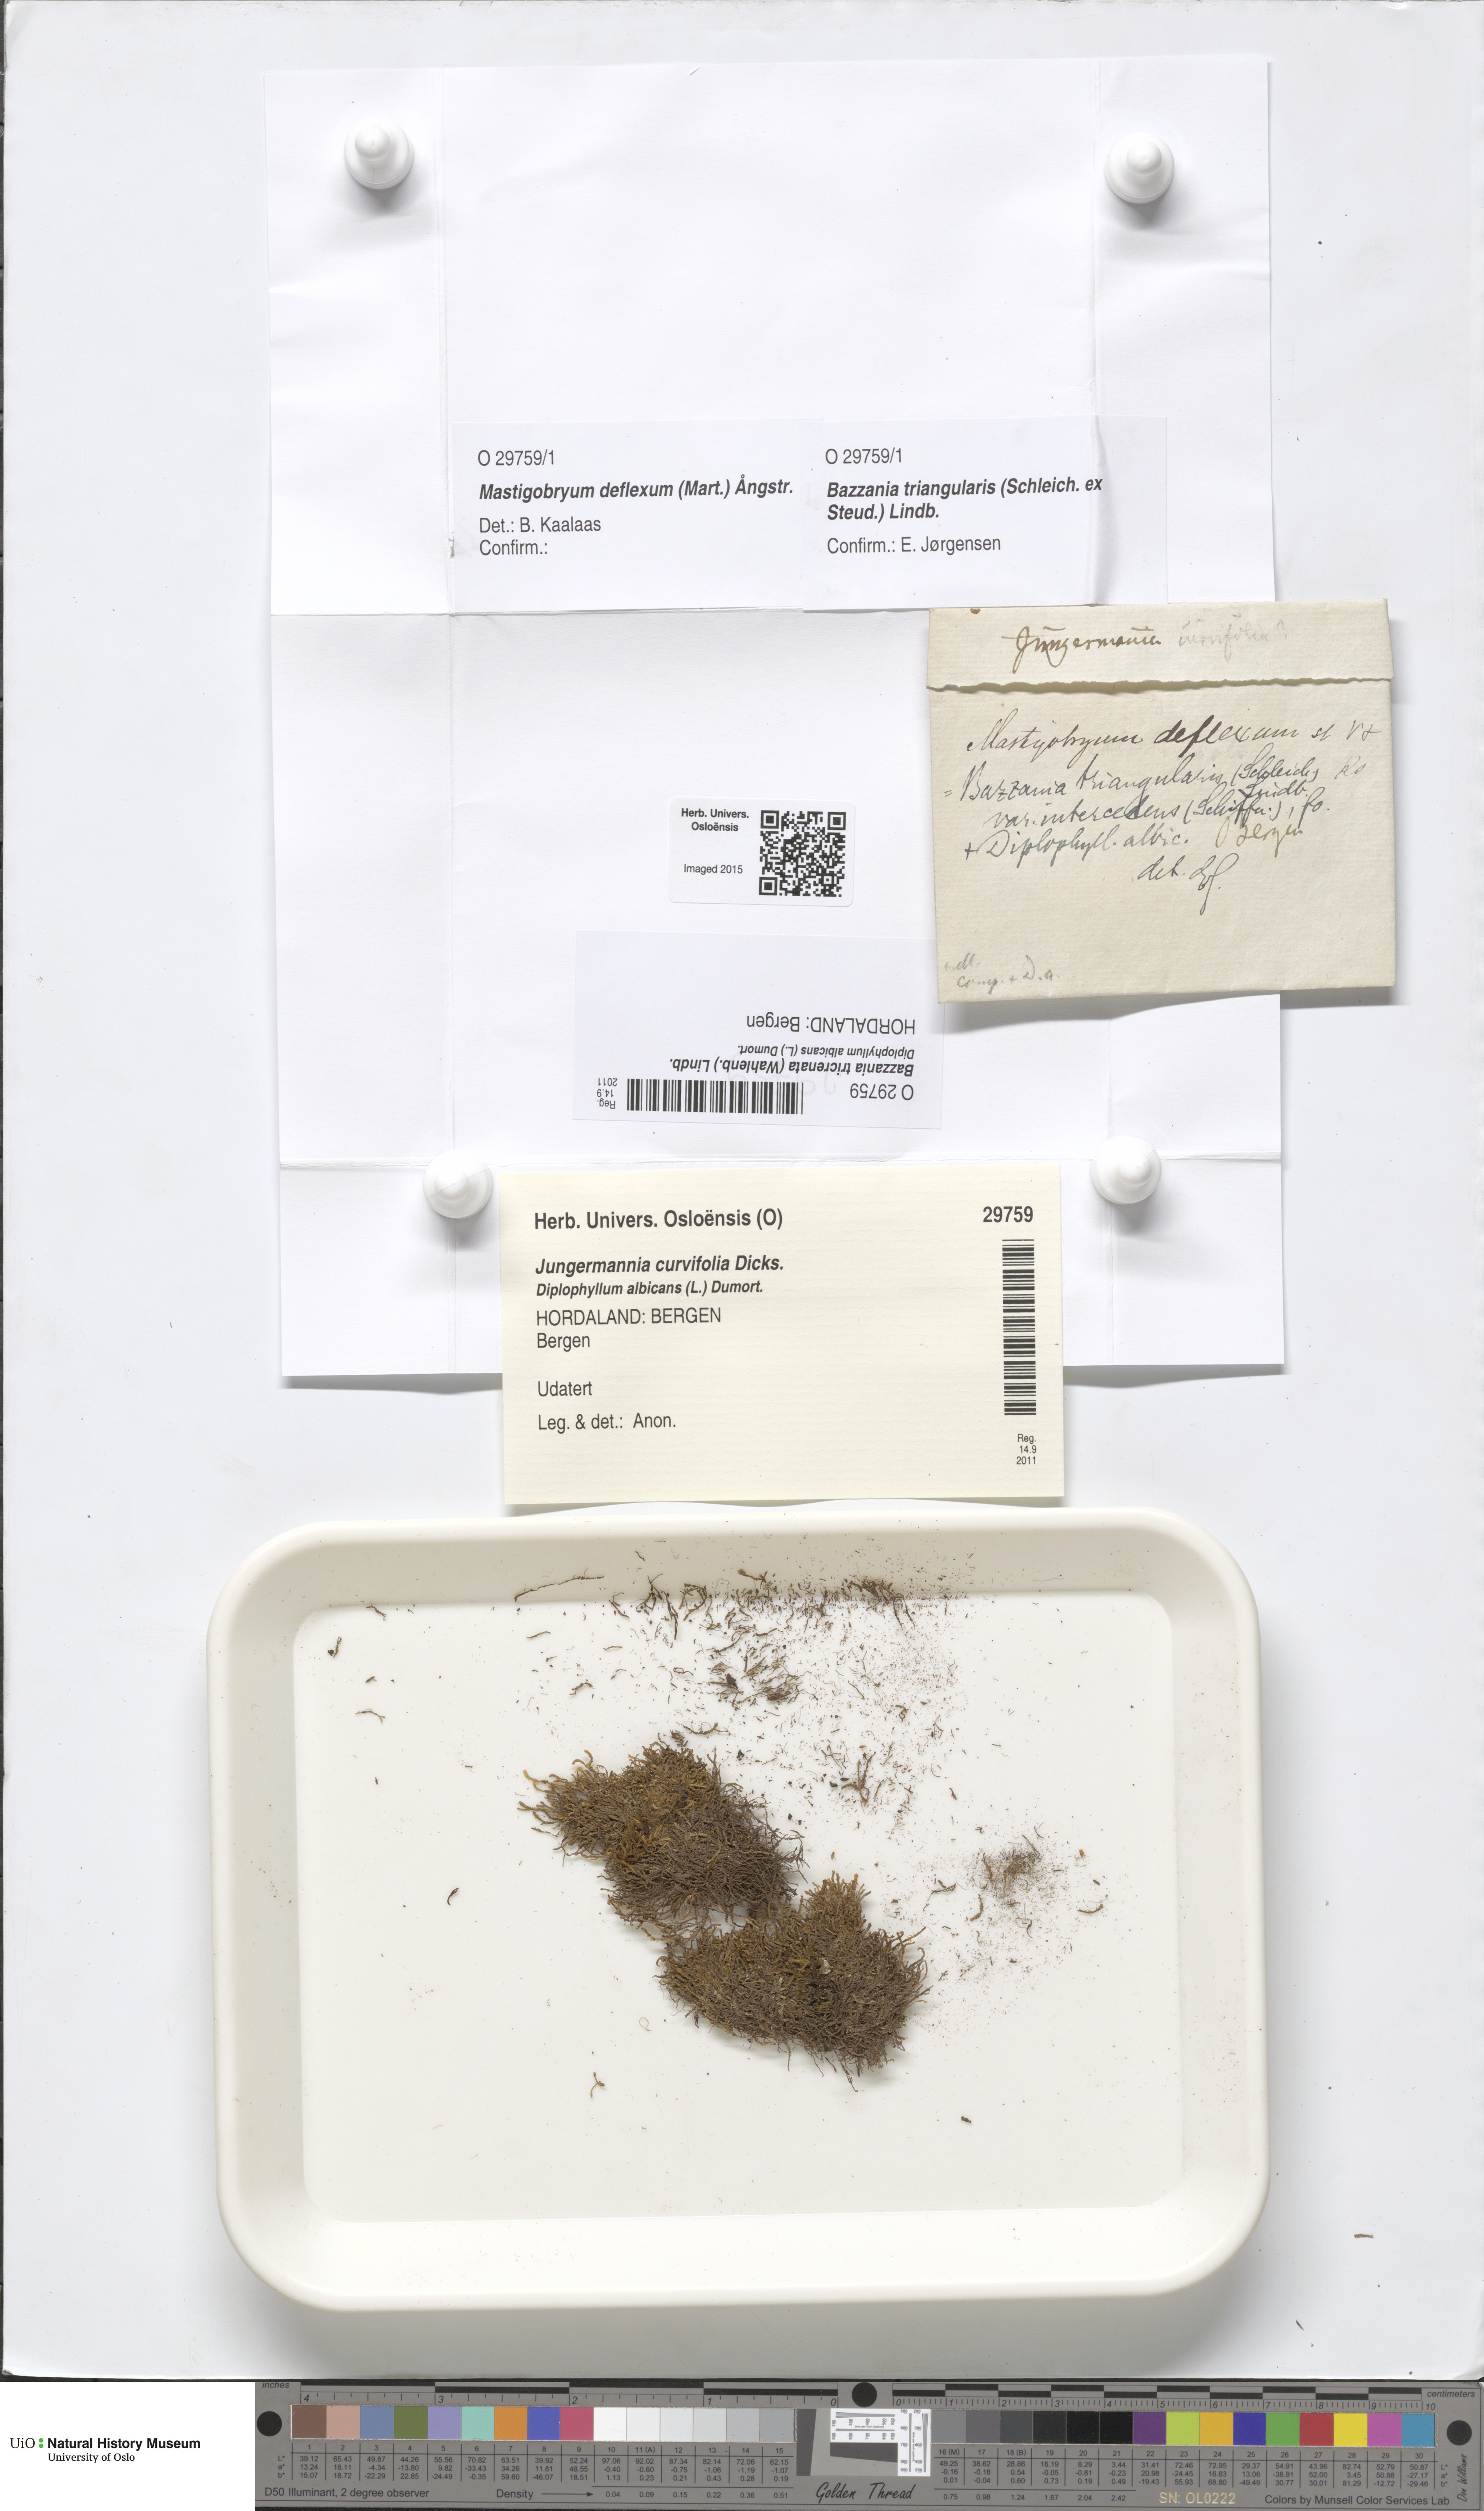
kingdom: Plantae
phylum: Marchantiophyta
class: Jungermanniopsida
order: Jungermanniales
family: Lepidoziaceae
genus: Bazzania
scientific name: Bazzania tricrenata
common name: Lesser whipwort
